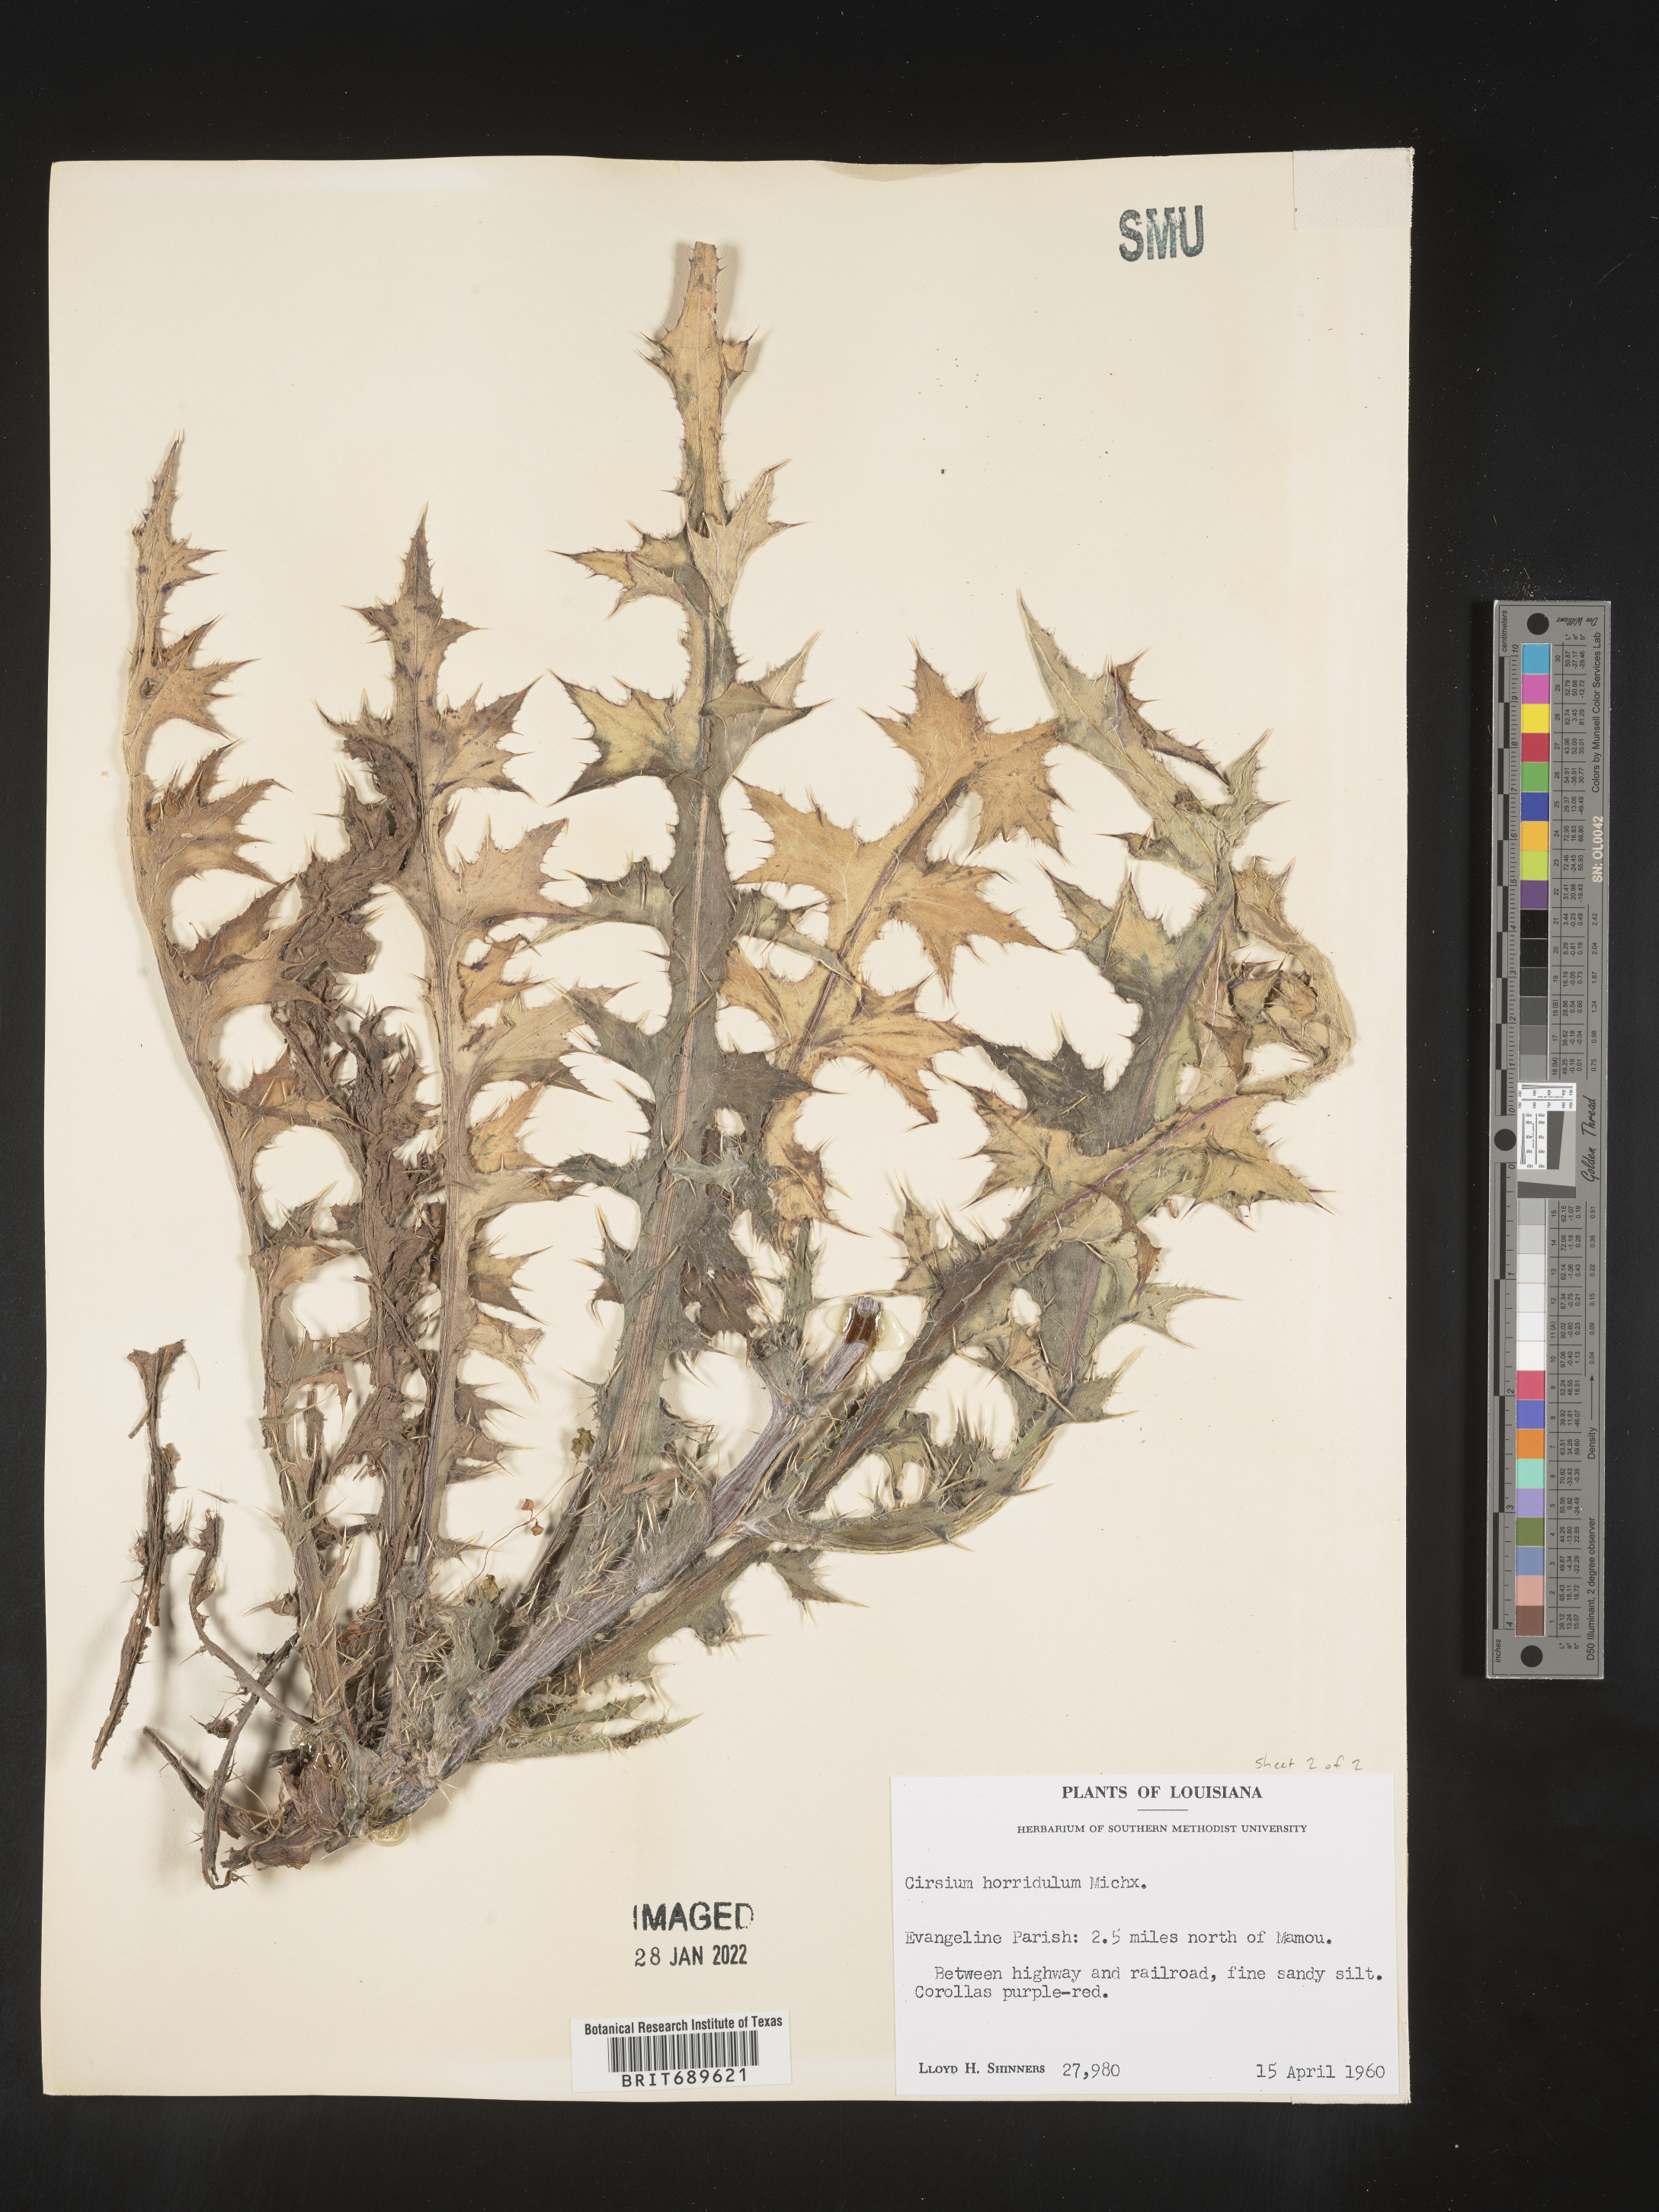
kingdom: Plantae
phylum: Tracheophyta
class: Magnoliopsida
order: Asterales
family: Asteraceae
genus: Cirsium
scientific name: Cirsium horridulum
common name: Bristly thistle
